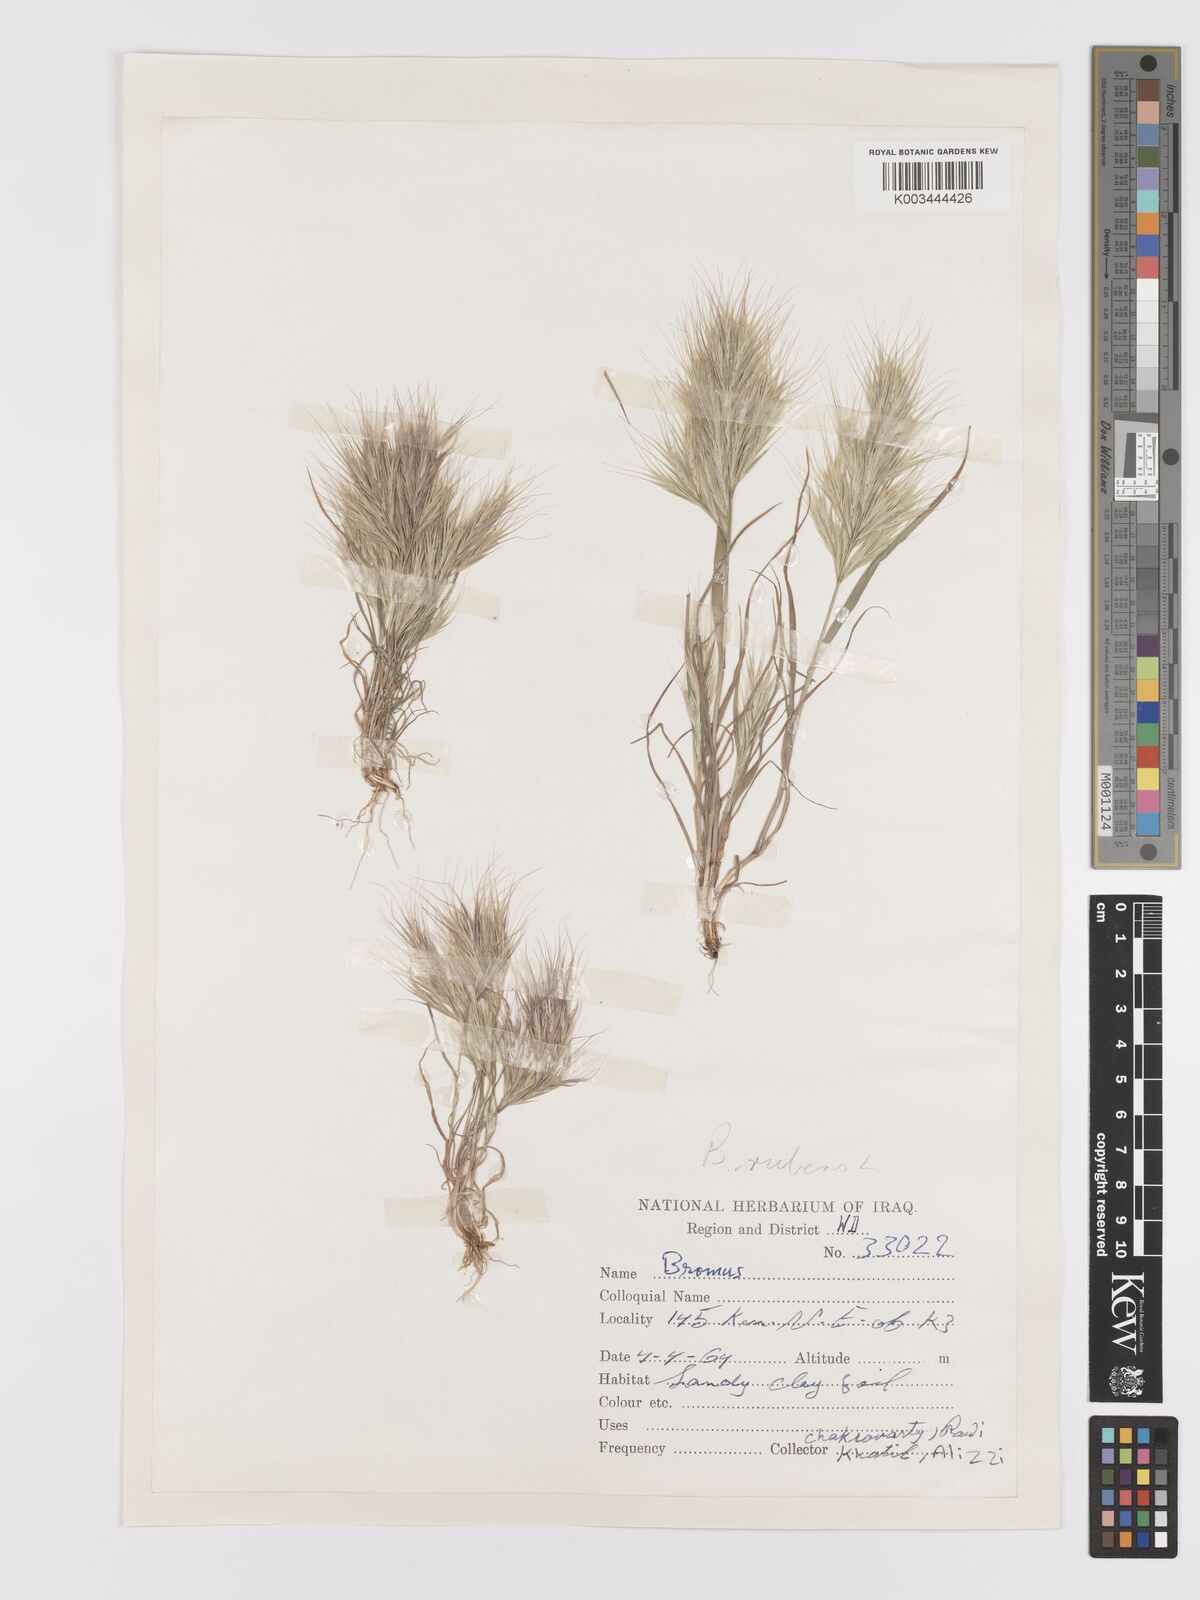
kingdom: Plantae
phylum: Tracheophyta
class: Liliopsida
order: Poales
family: Poaceae
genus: Bromus
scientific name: Bromus rubens
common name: Red brome
